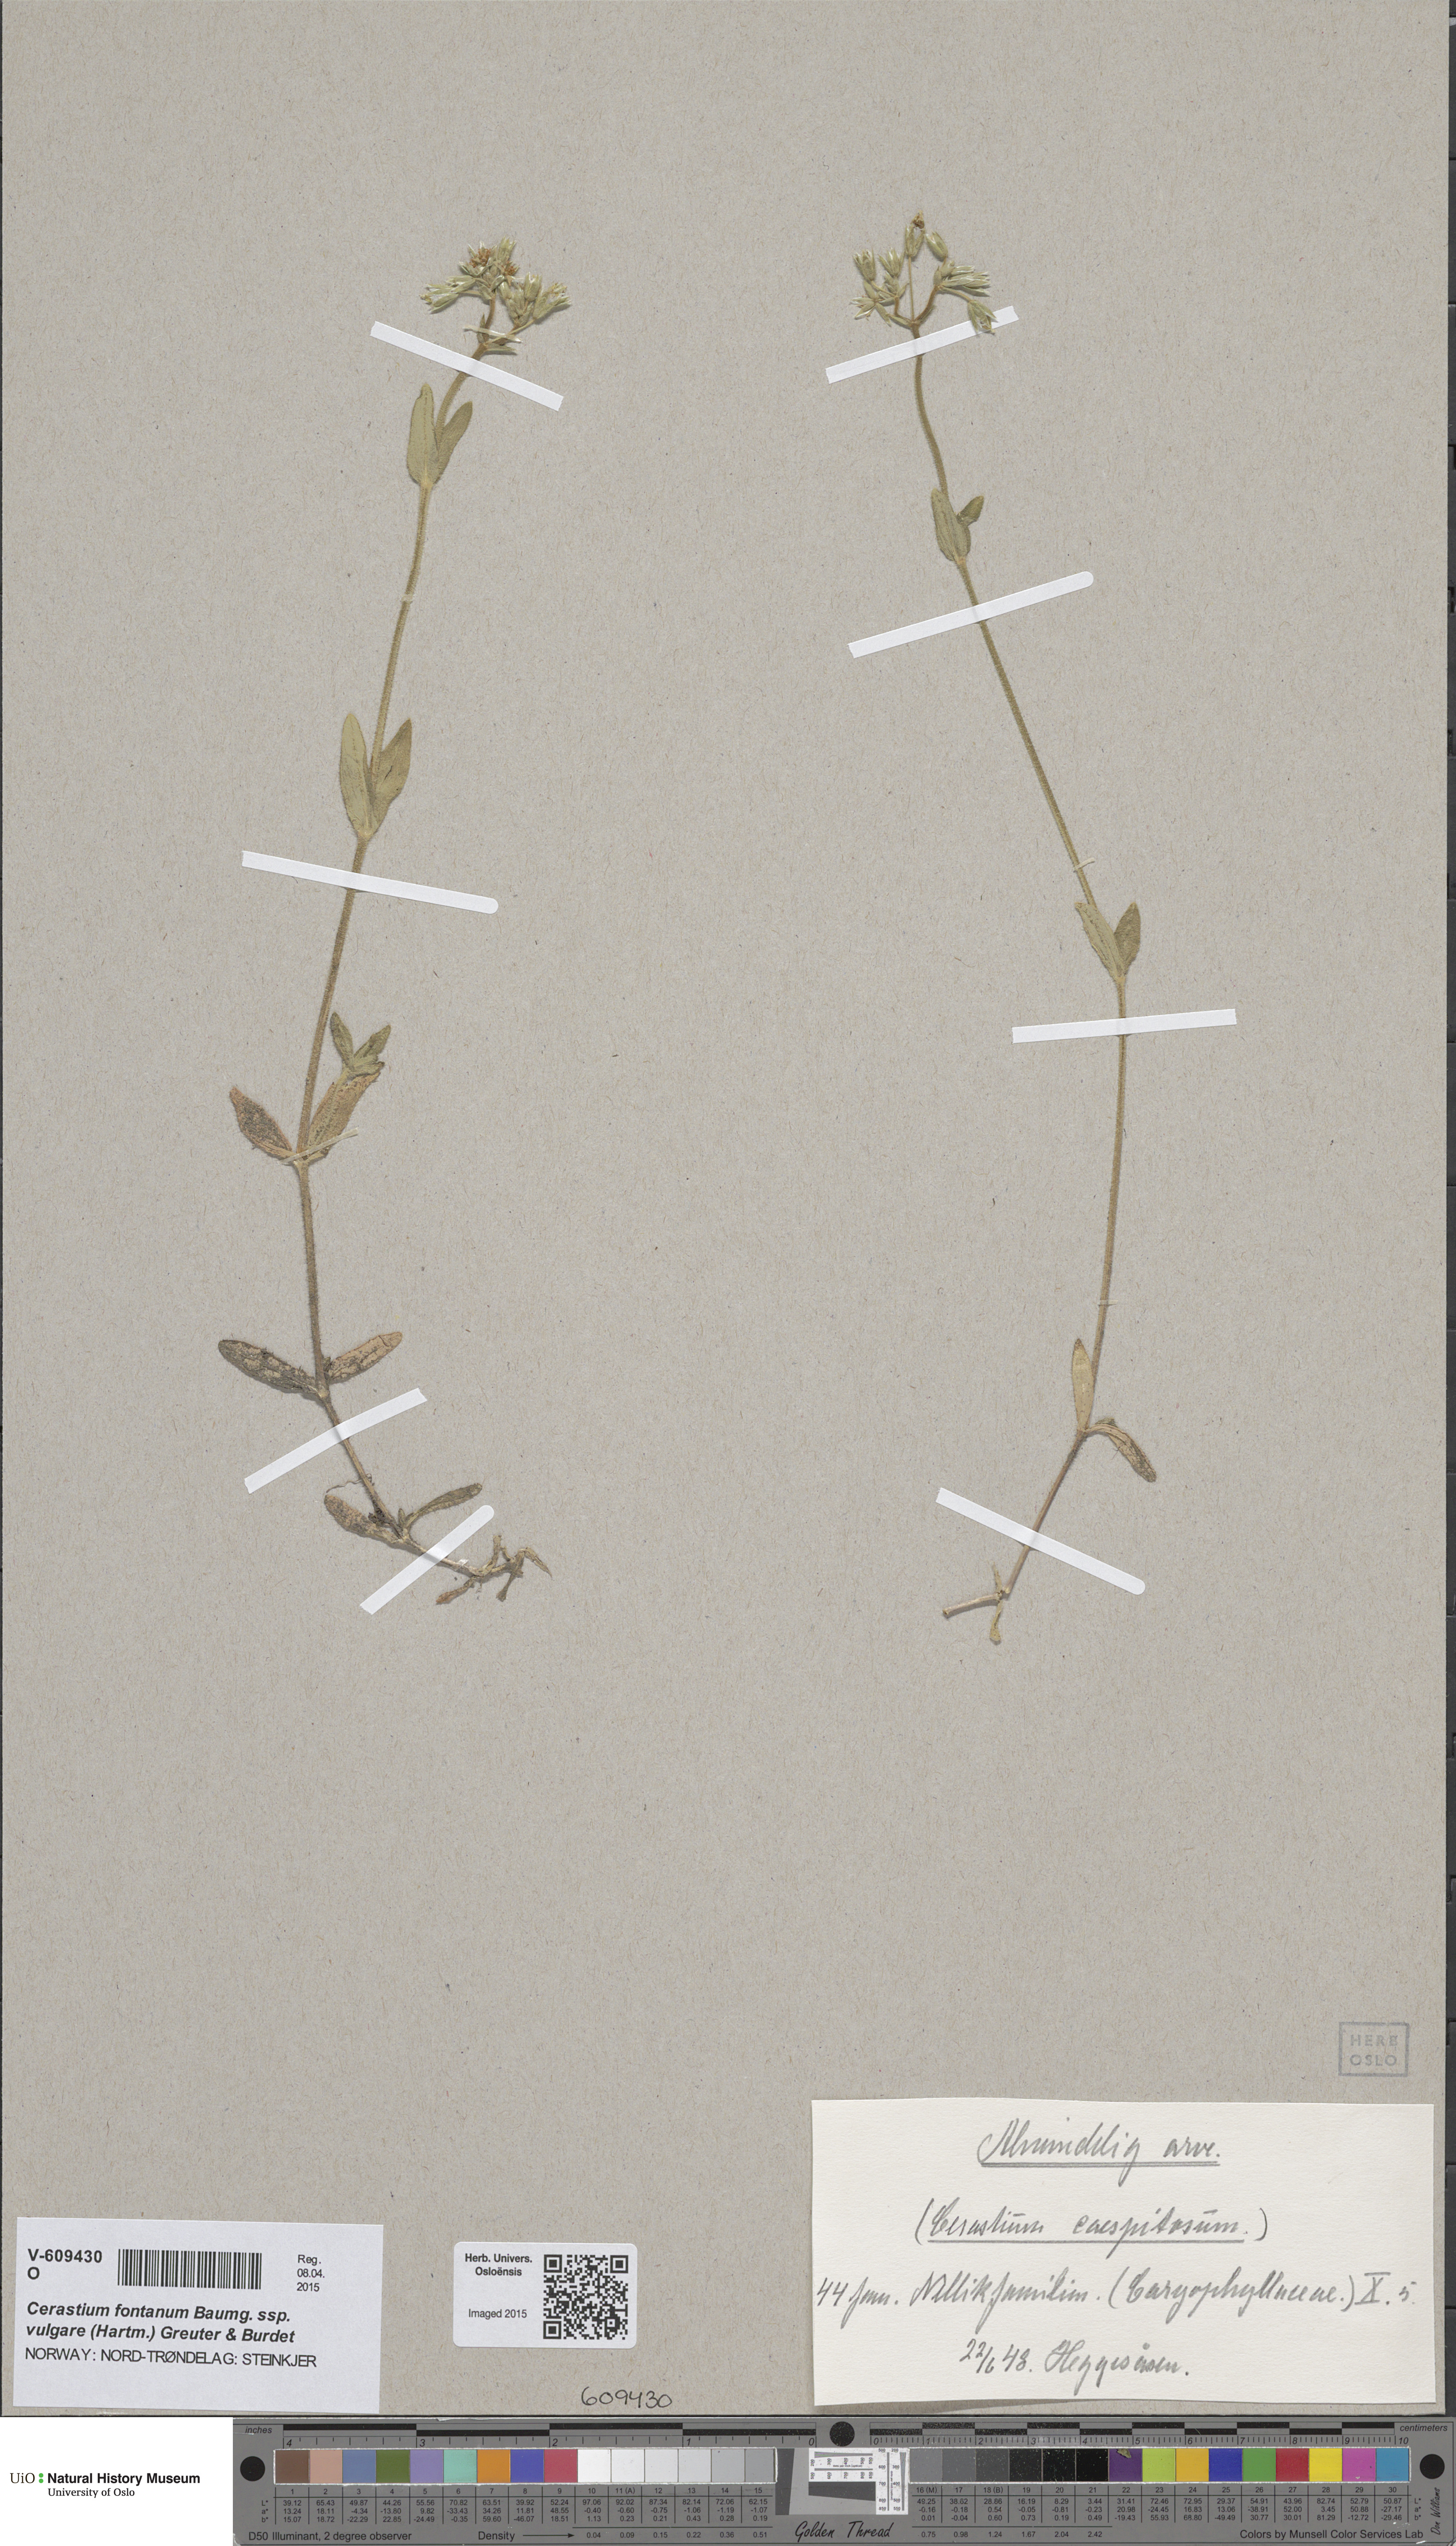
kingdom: Plantae
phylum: Tracheophyta
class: Magnoliopsida
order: Caryophyllales
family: Caryophyllaceae
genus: Cerastium
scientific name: Cerastium holosteoides
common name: Big chickweed
